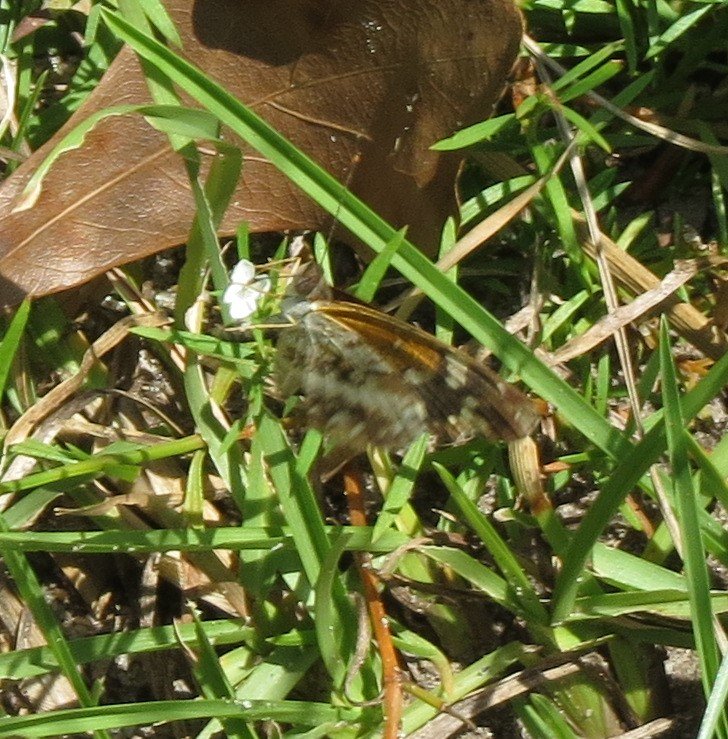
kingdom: Animalia
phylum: Arthropoda
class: Insecta
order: Lepidoptera
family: Nymphalidae
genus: Anthanassa
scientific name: Anthanassa texana
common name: Texan Crescent
